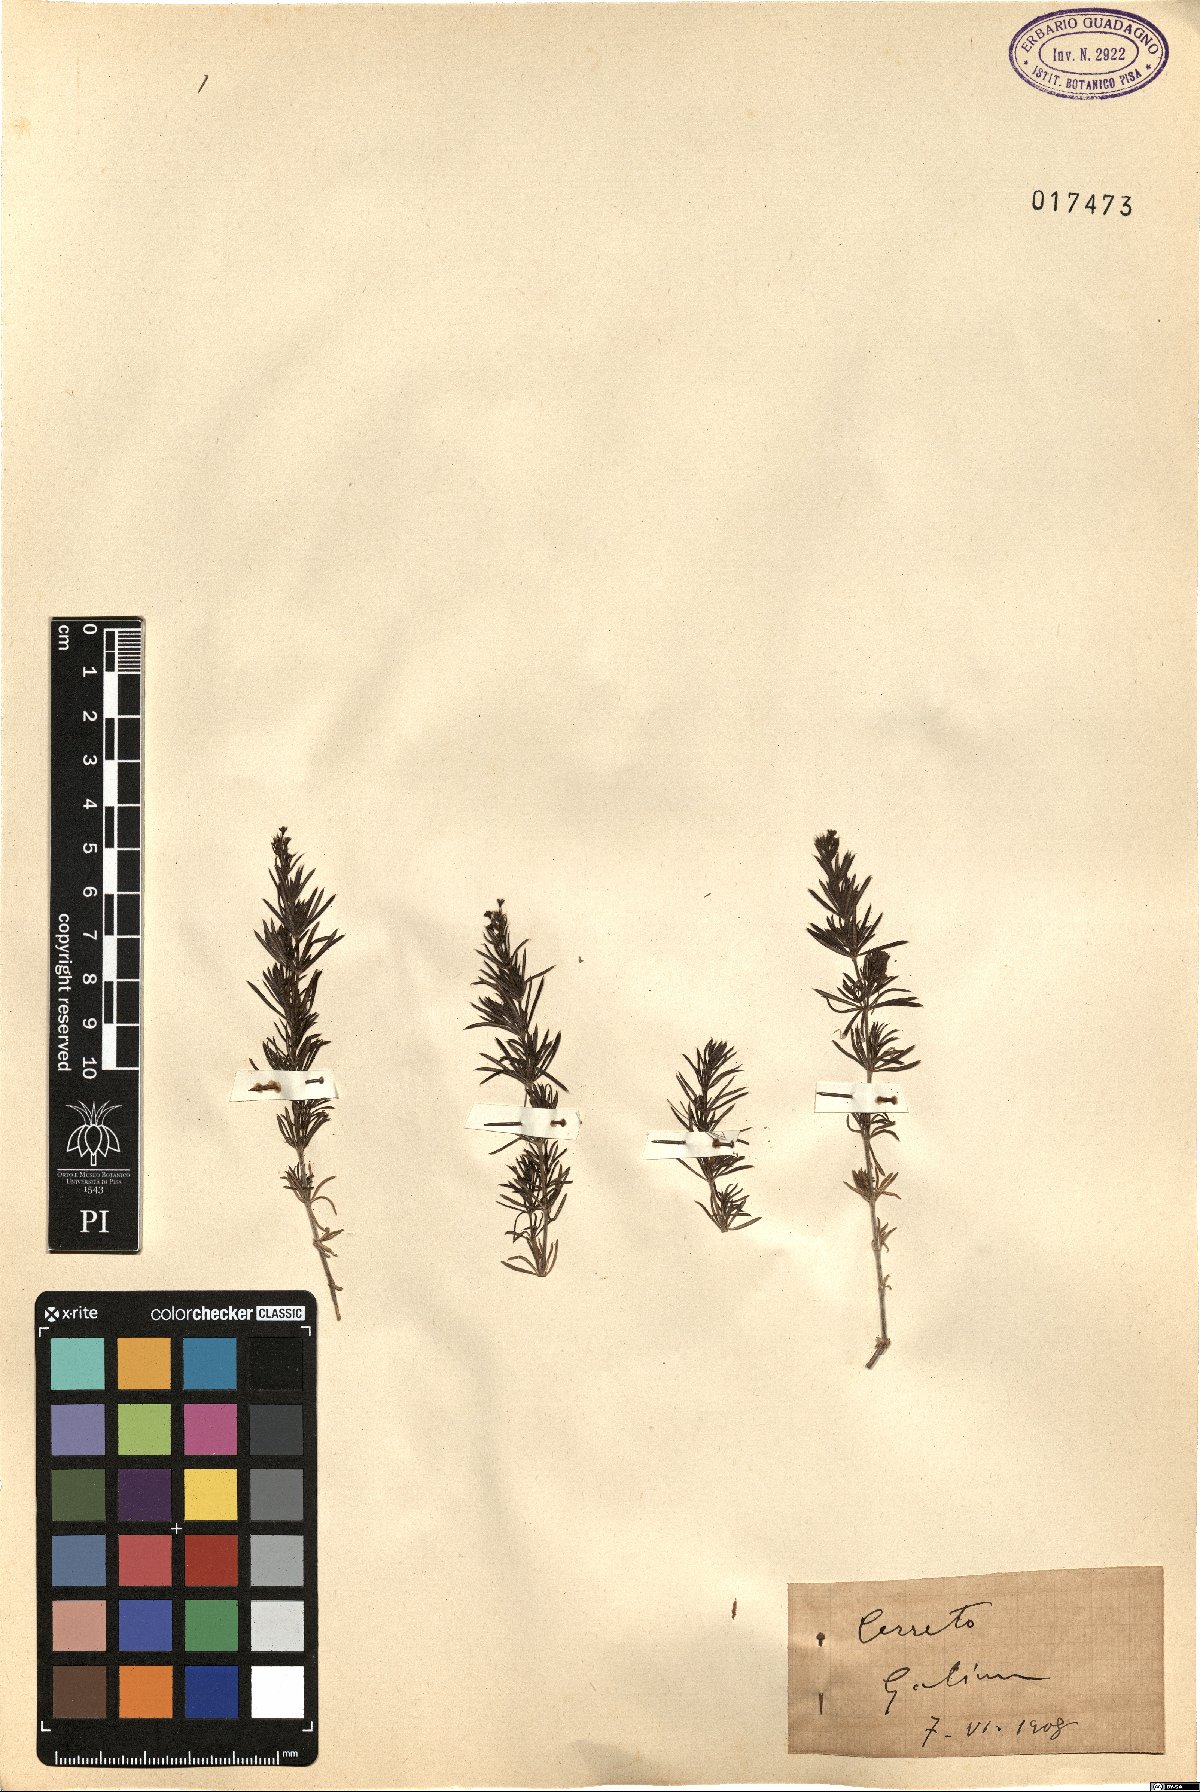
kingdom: Plantae
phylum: Tracheophyta
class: Magnoliopsida
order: Gentianales
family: Rubiaceae
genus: Galium
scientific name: Galium
